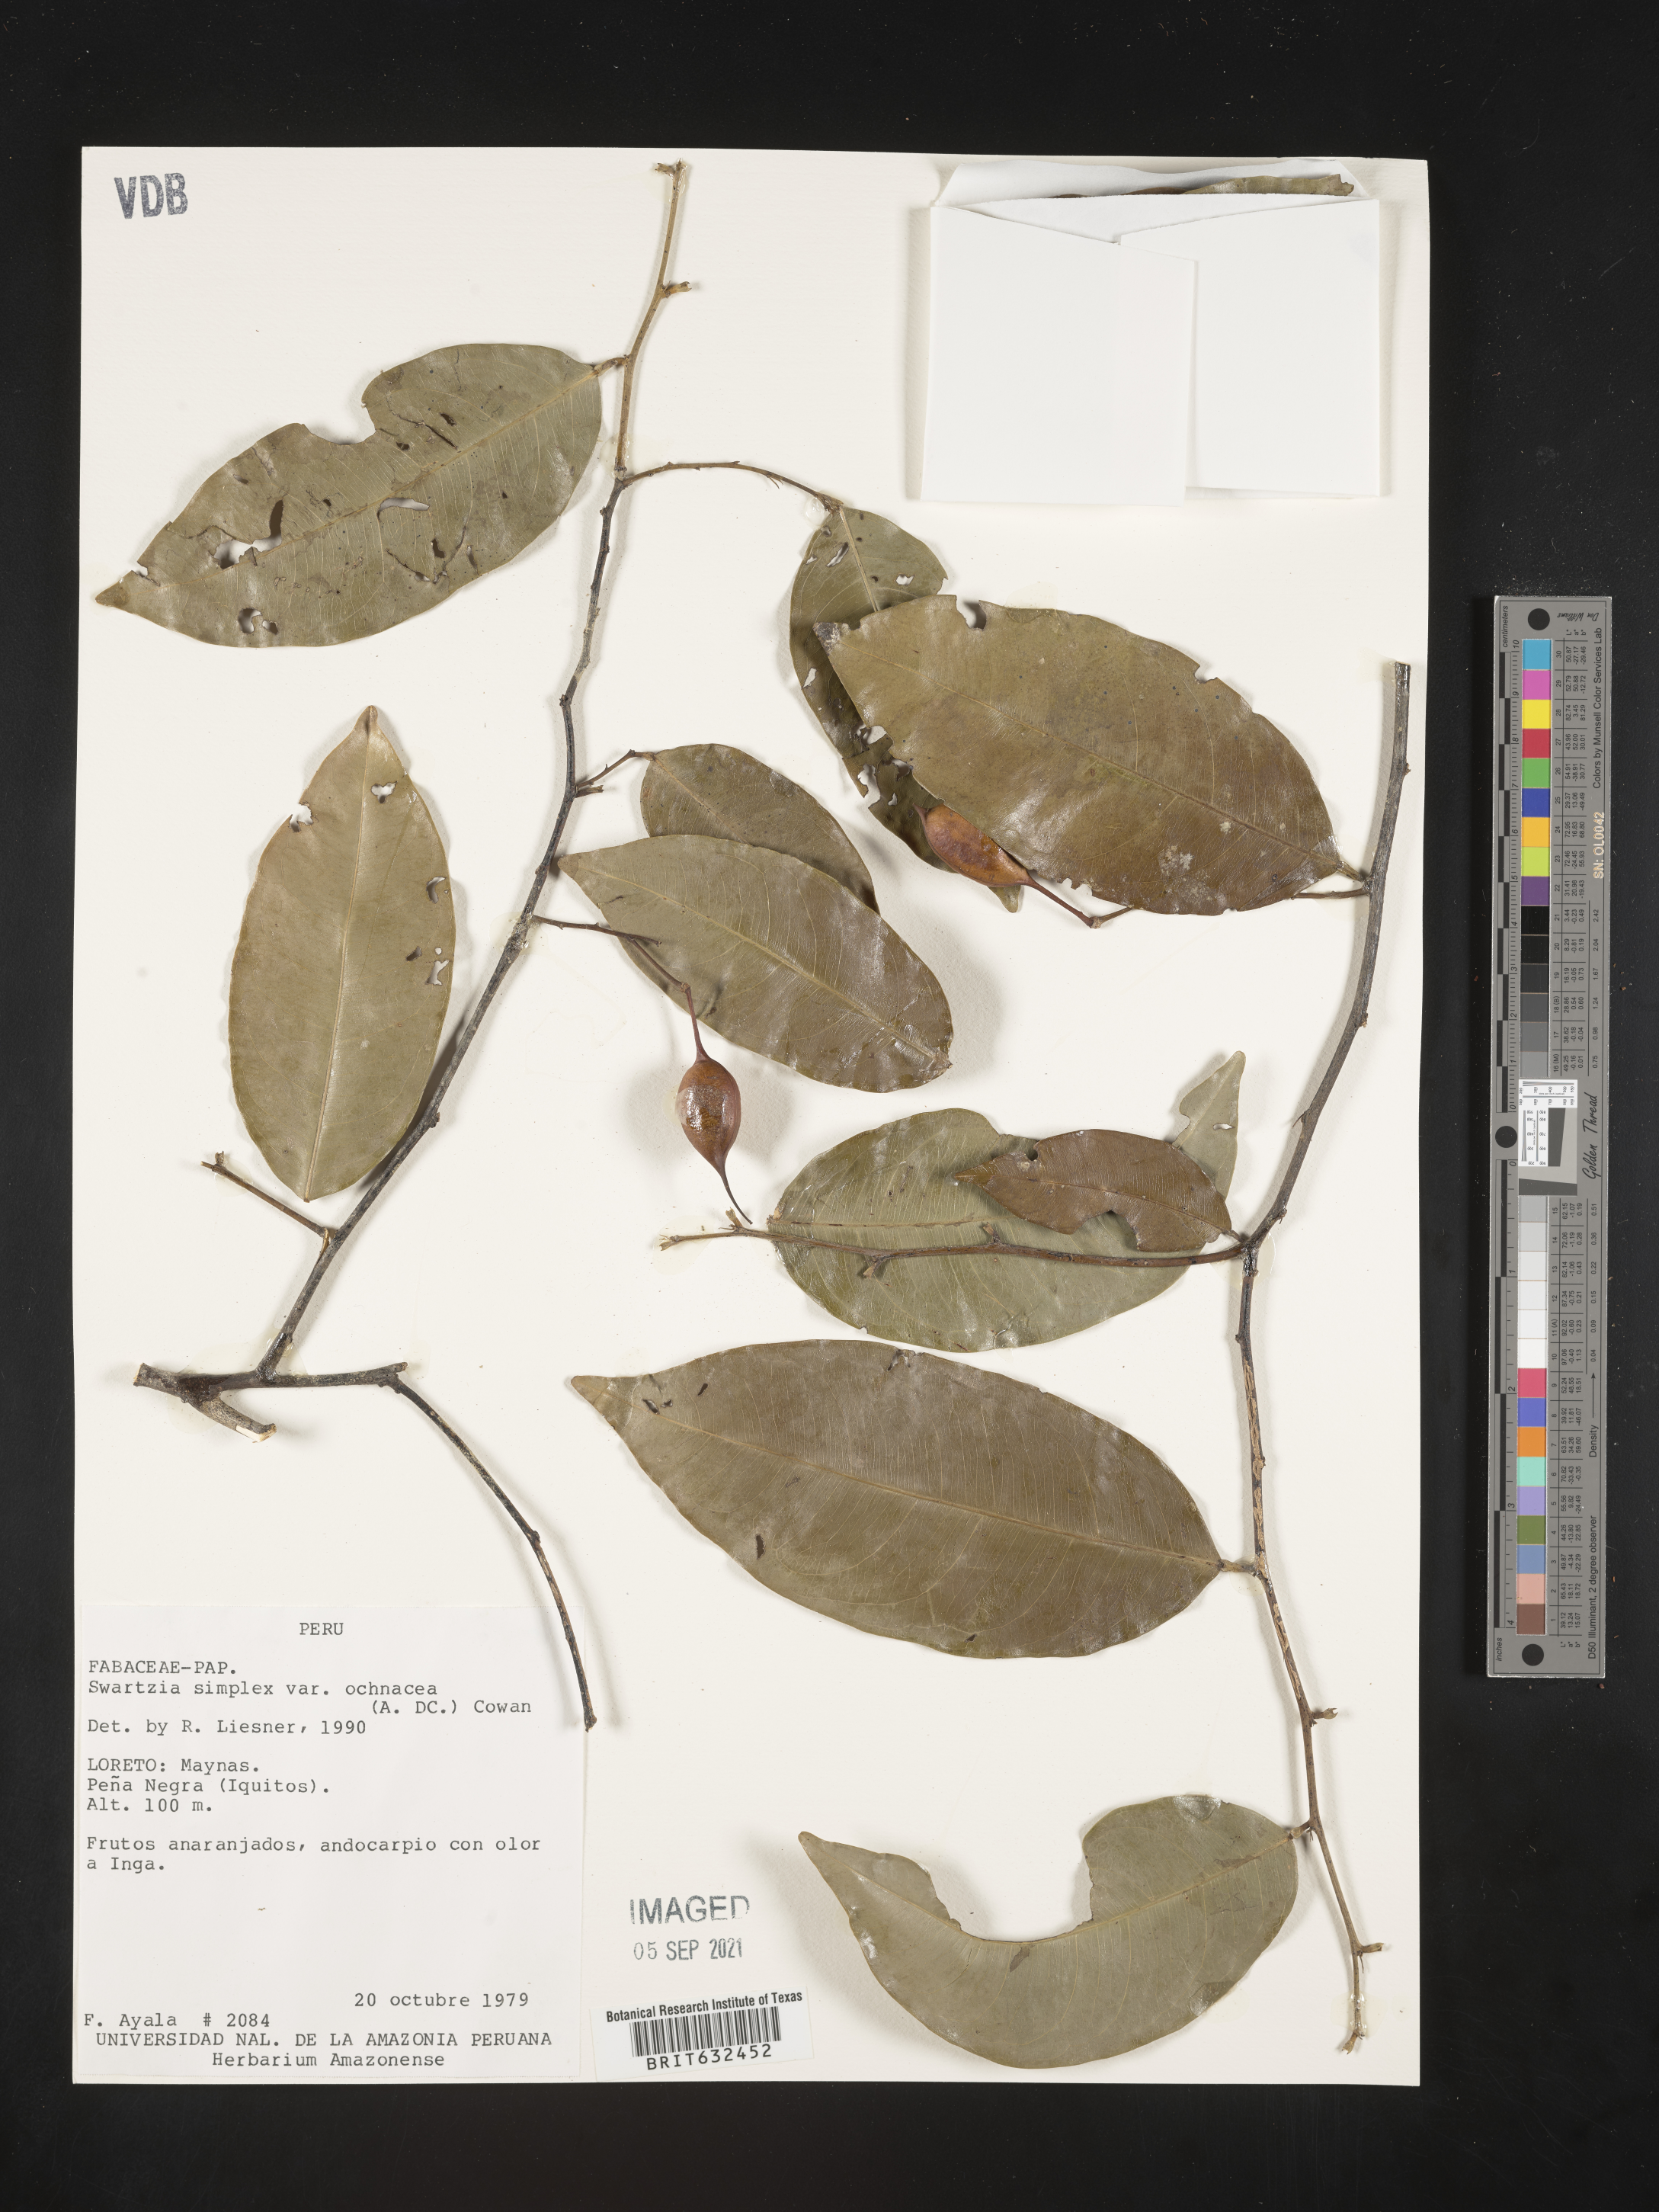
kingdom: Plantae
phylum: Tracheophyta
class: Magnoliopsida
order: Fabales
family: Fabaceae
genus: Swartzia
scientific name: Swartzia
